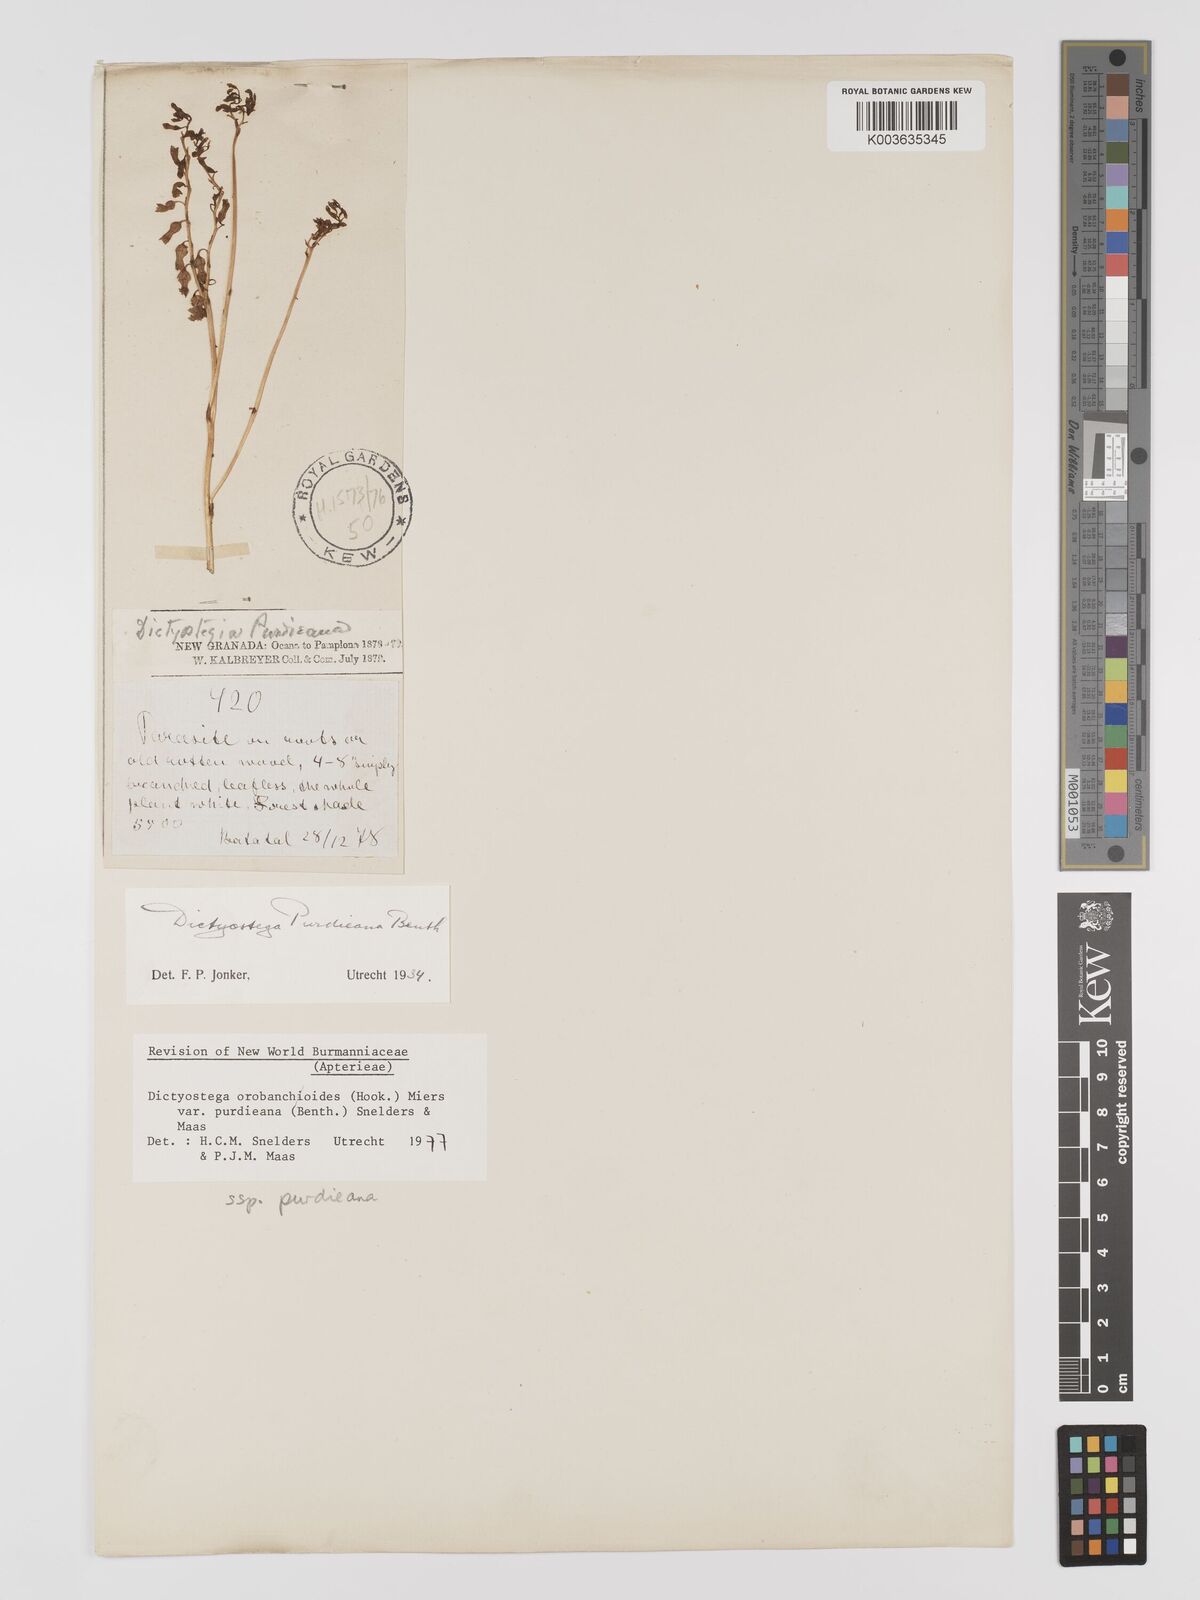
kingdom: Plantae
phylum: Tracheophyta
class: Liliopsida
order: Dioscoreales
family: Burmanniaceae
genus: Dictyostega
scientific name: Dictyostega orobanchoides
